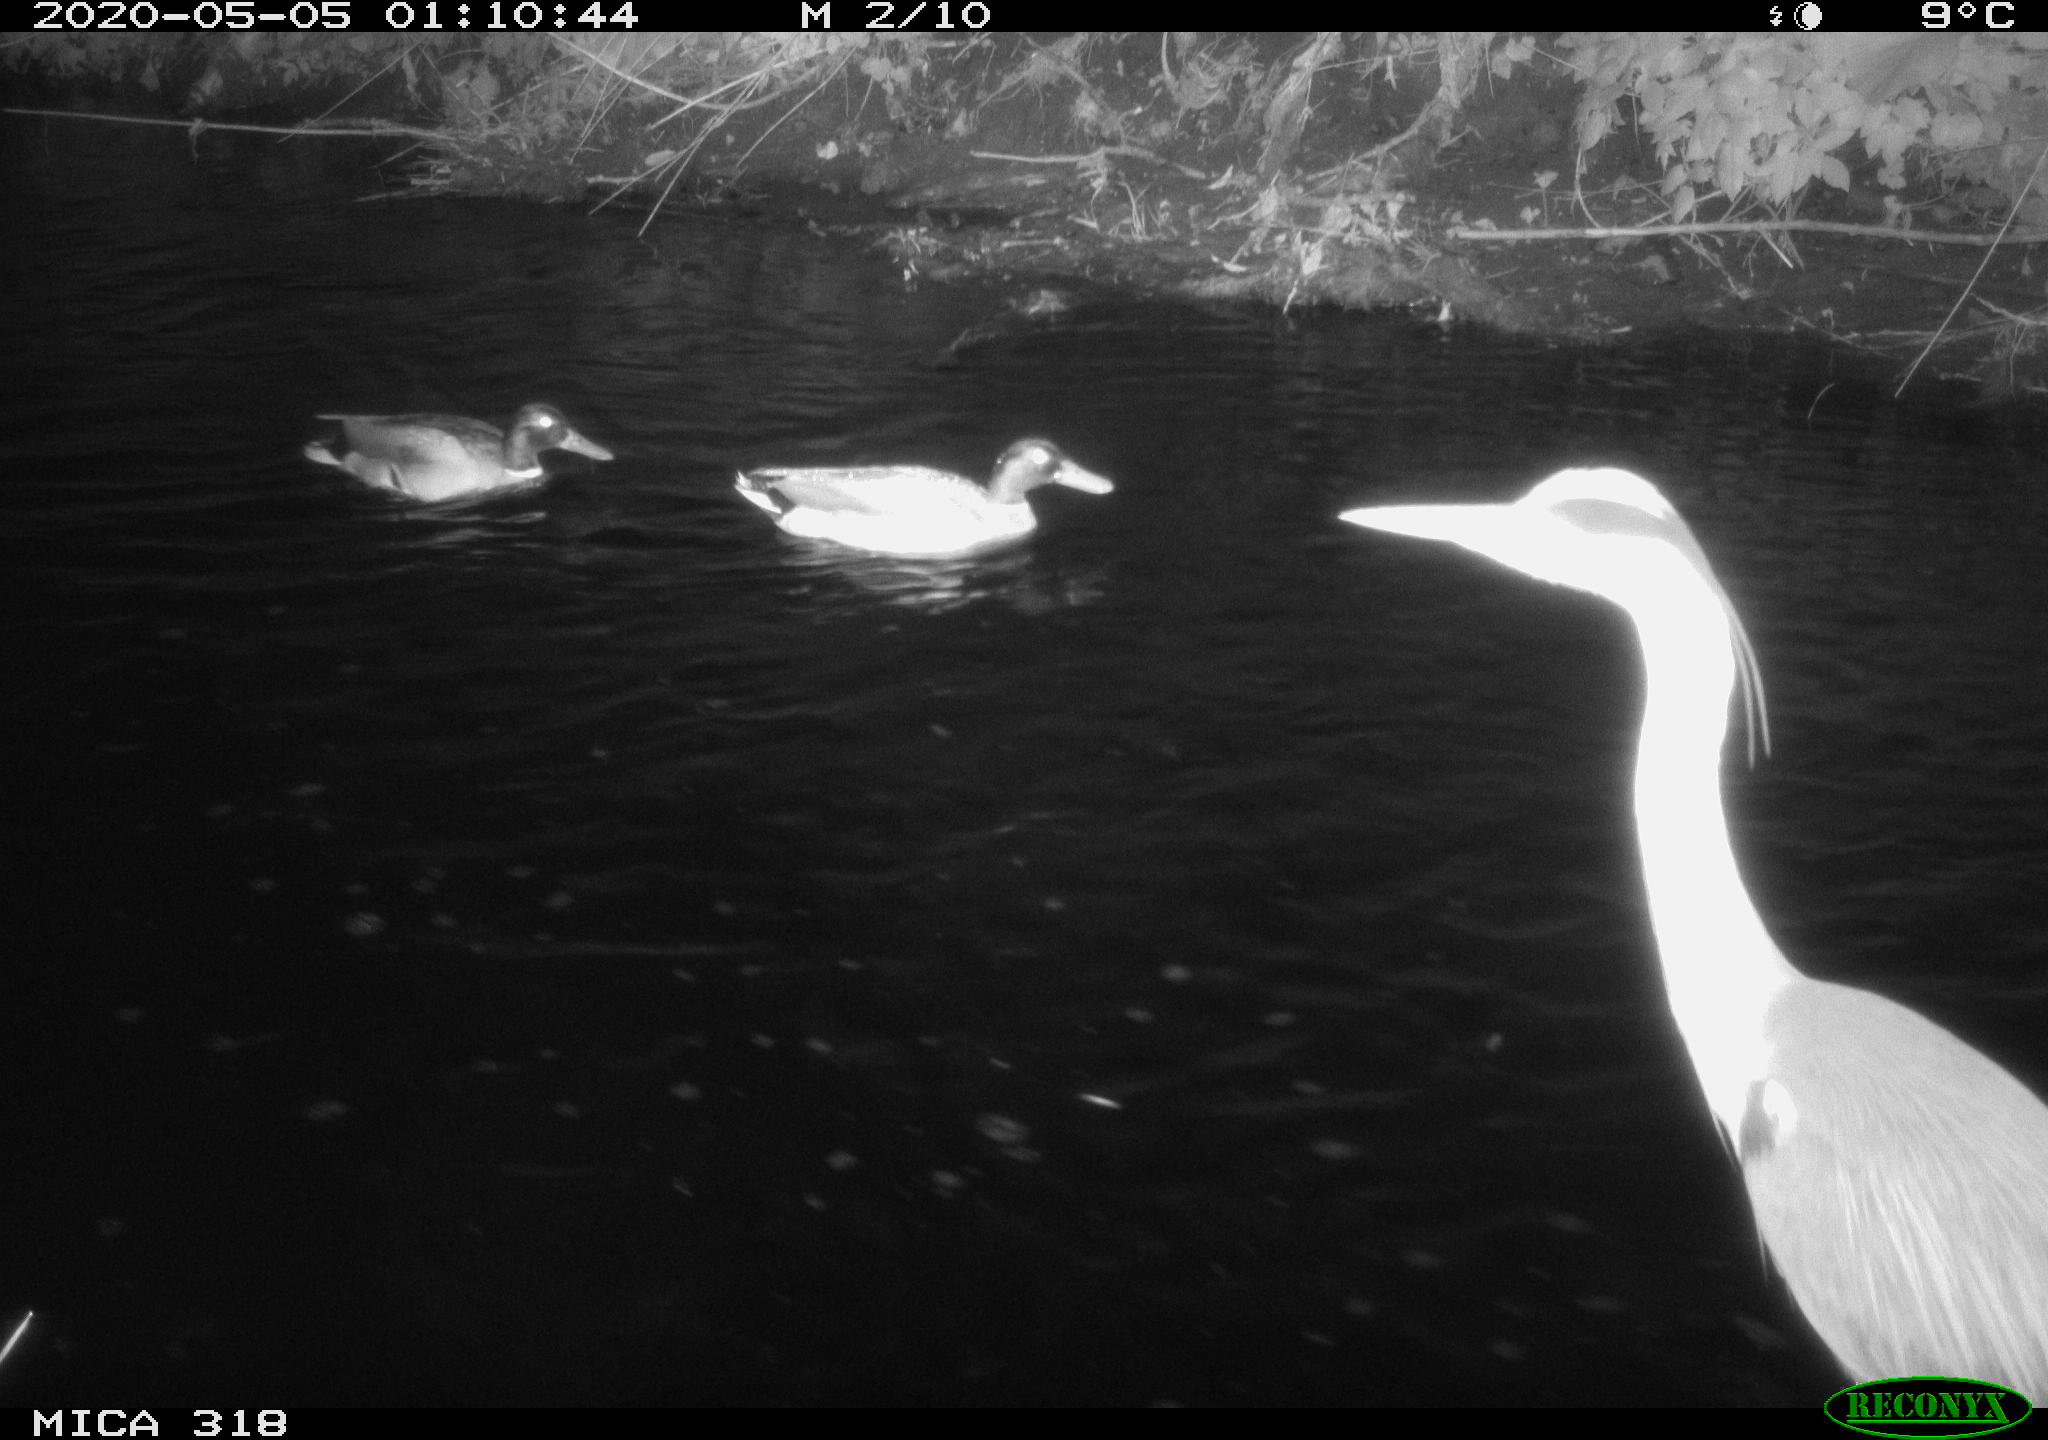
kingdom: Animalia
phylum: Chordata
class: Aves
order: Anseriformes
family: Anatidae
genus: Anas
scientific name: Anas platyrhynchos
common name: Mallard
